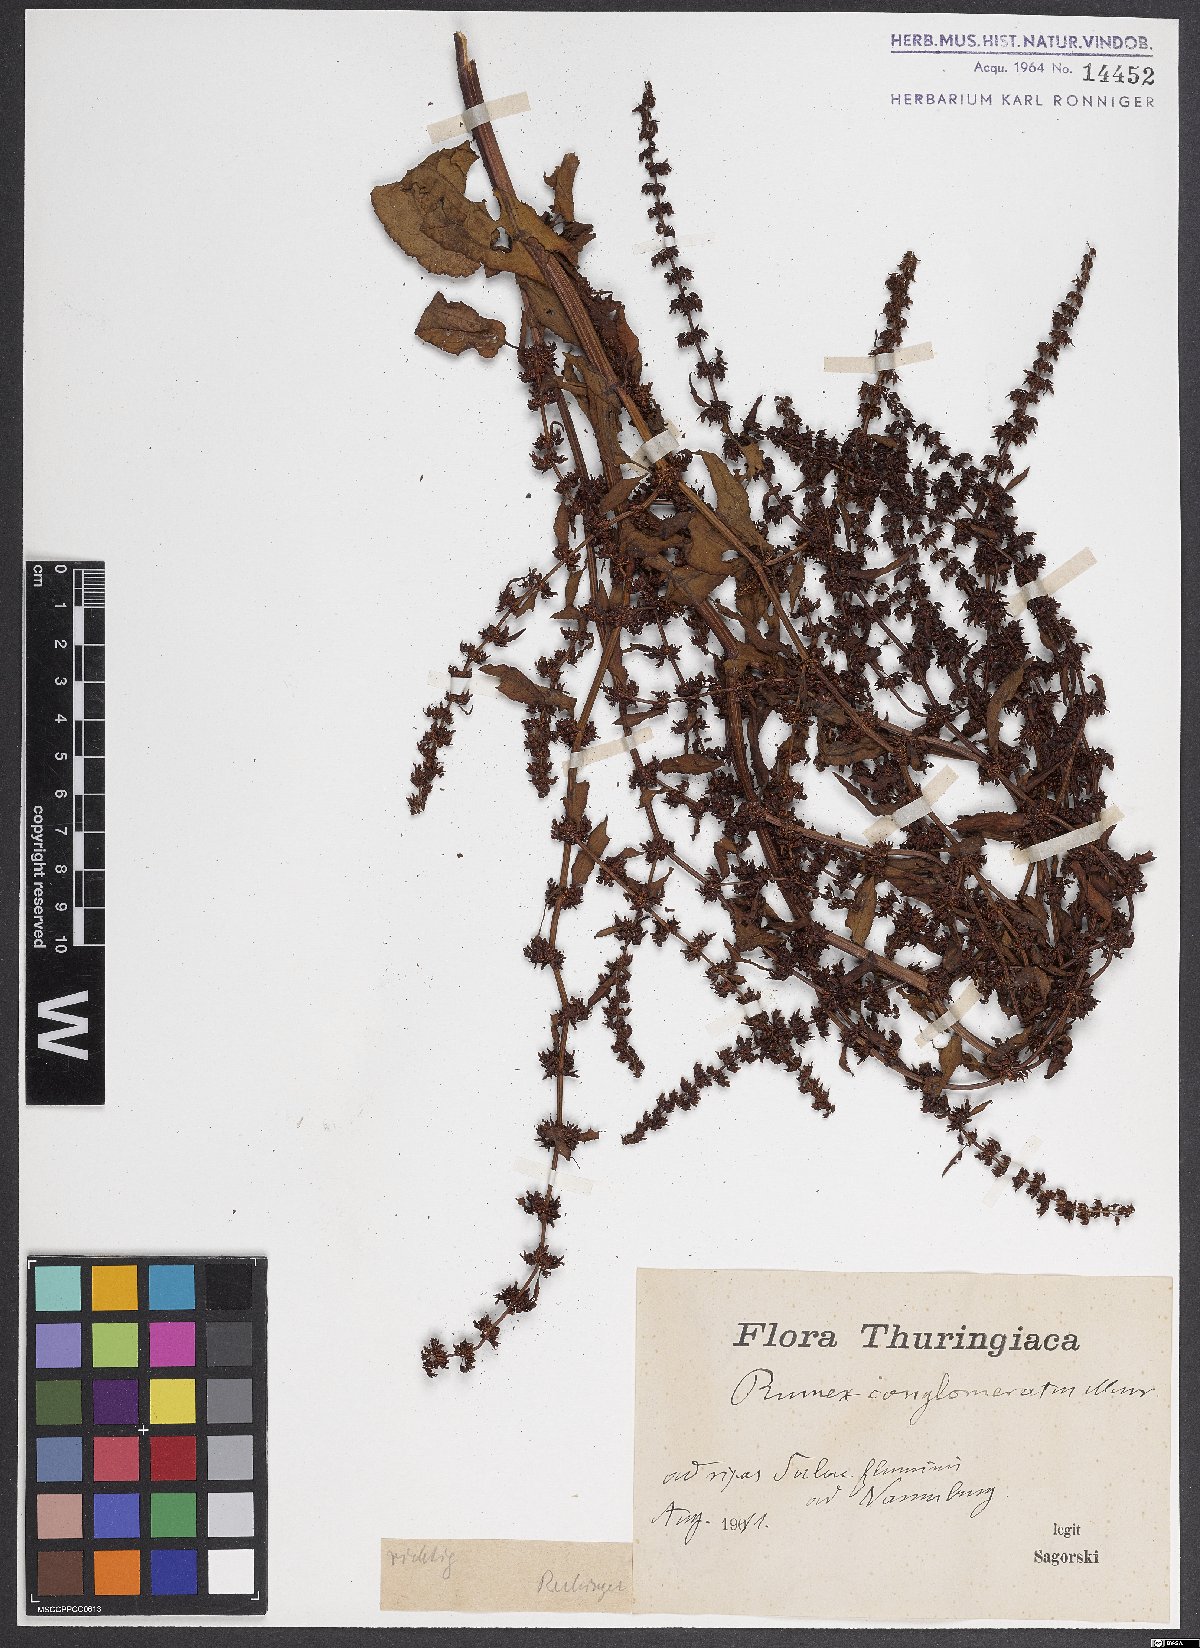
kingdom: Plantae
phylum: Tracheophyta
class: Magnoliopsida
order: Caryophyllales
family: Polygonaceae
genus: Rumex
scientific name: Rumex conglomeratus
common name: Clustered dock
